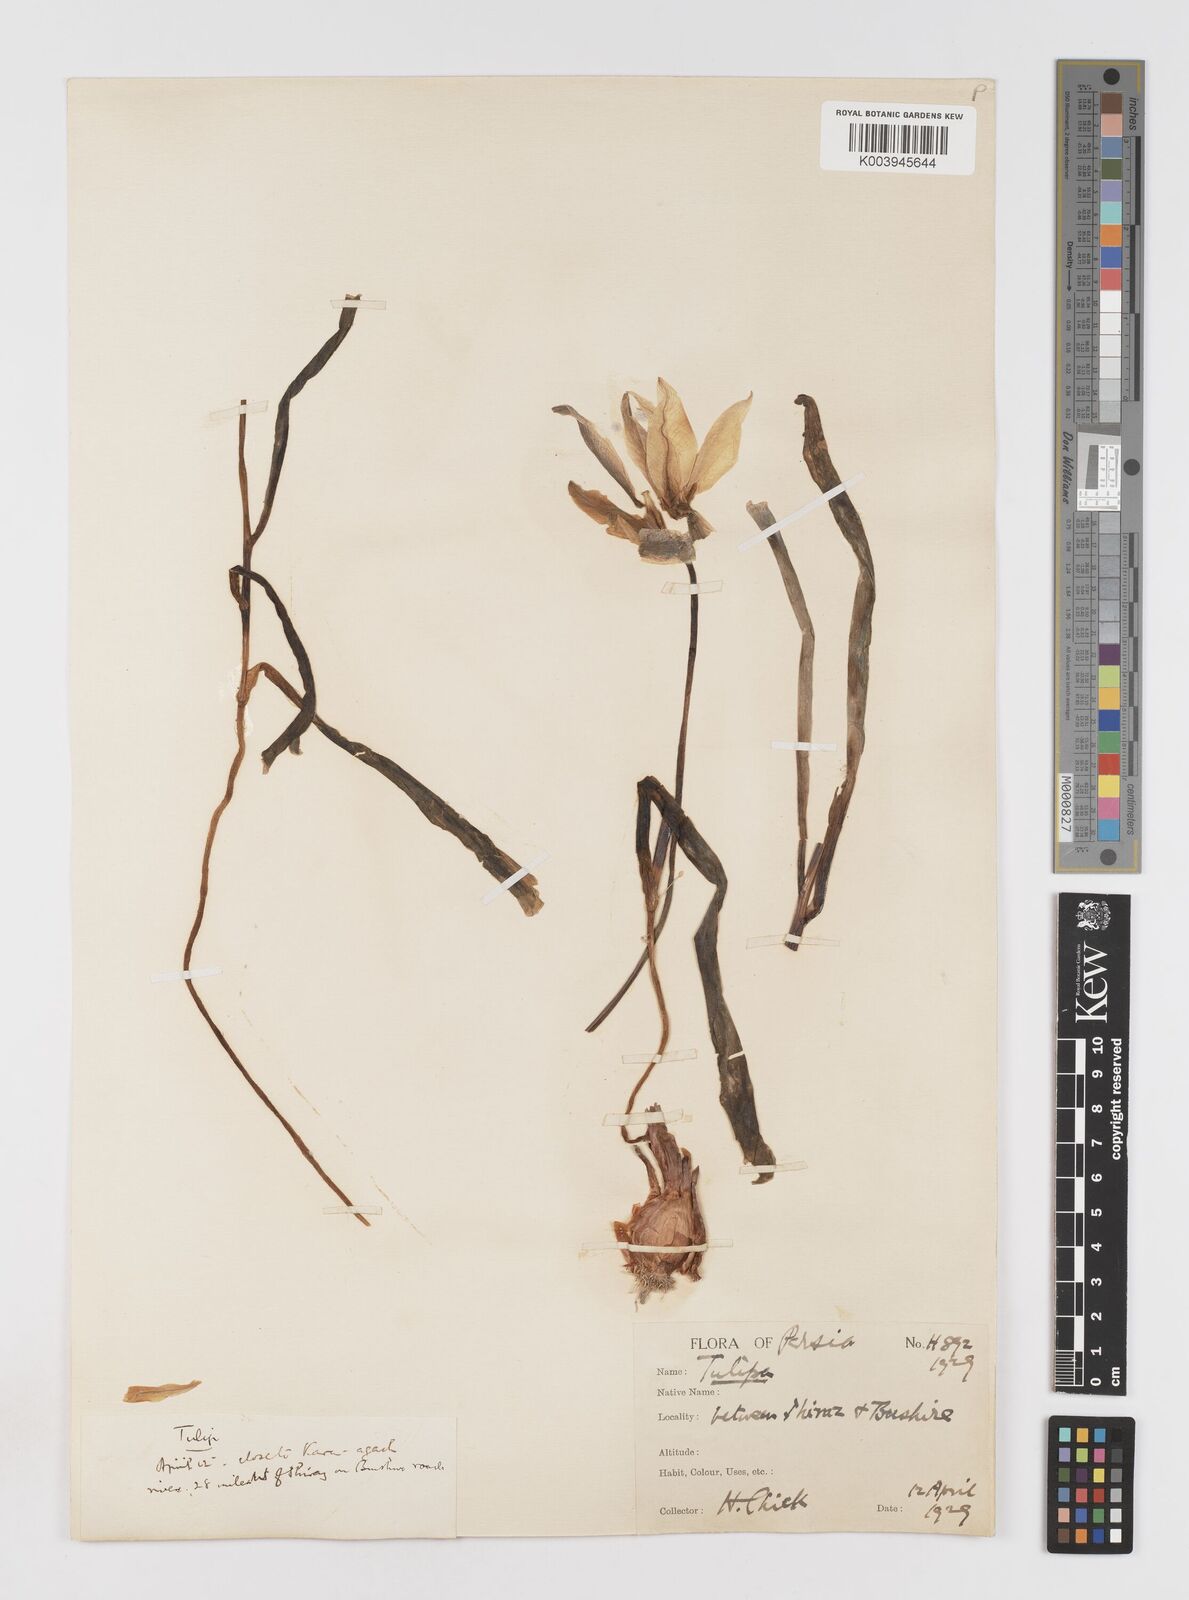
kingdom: Plantae
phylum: Tracheophyta
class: Liliopsida
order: Liliales
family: Liliaceae
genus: Tulipa
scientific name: Tulipa sylvestris
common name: Wild tulip
